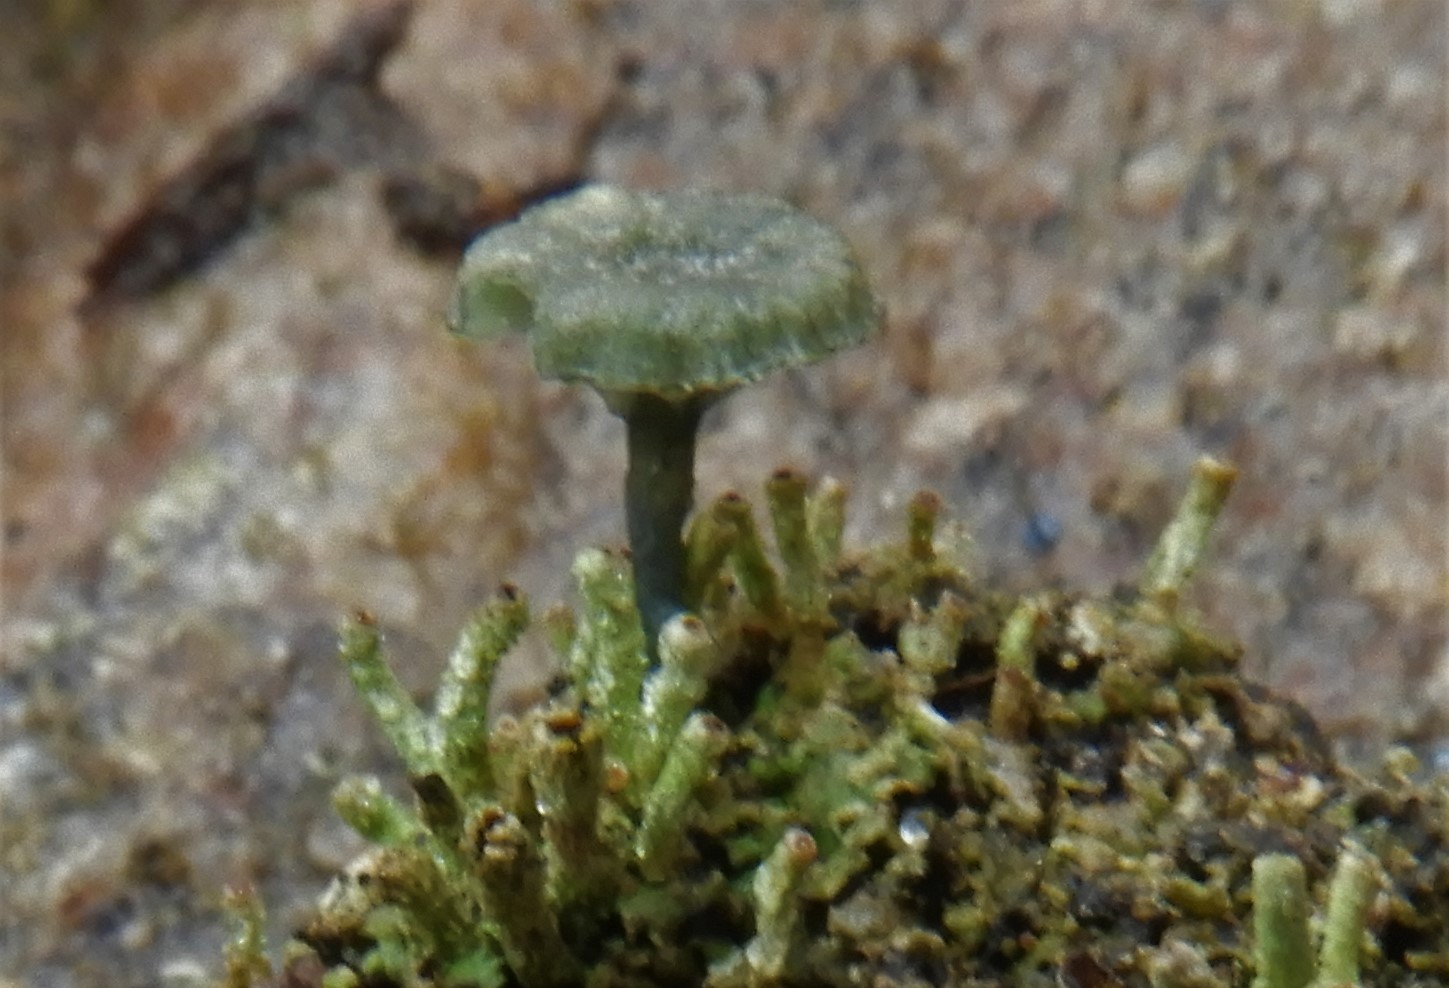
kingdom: Fungi
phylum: Basidiomycota
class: Agaricomycetes
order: Agaricales
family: Hygrophoraceae
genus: Arrhenia
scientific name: Arrhenia chlorocyanea
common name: blågrøn fontænehat
